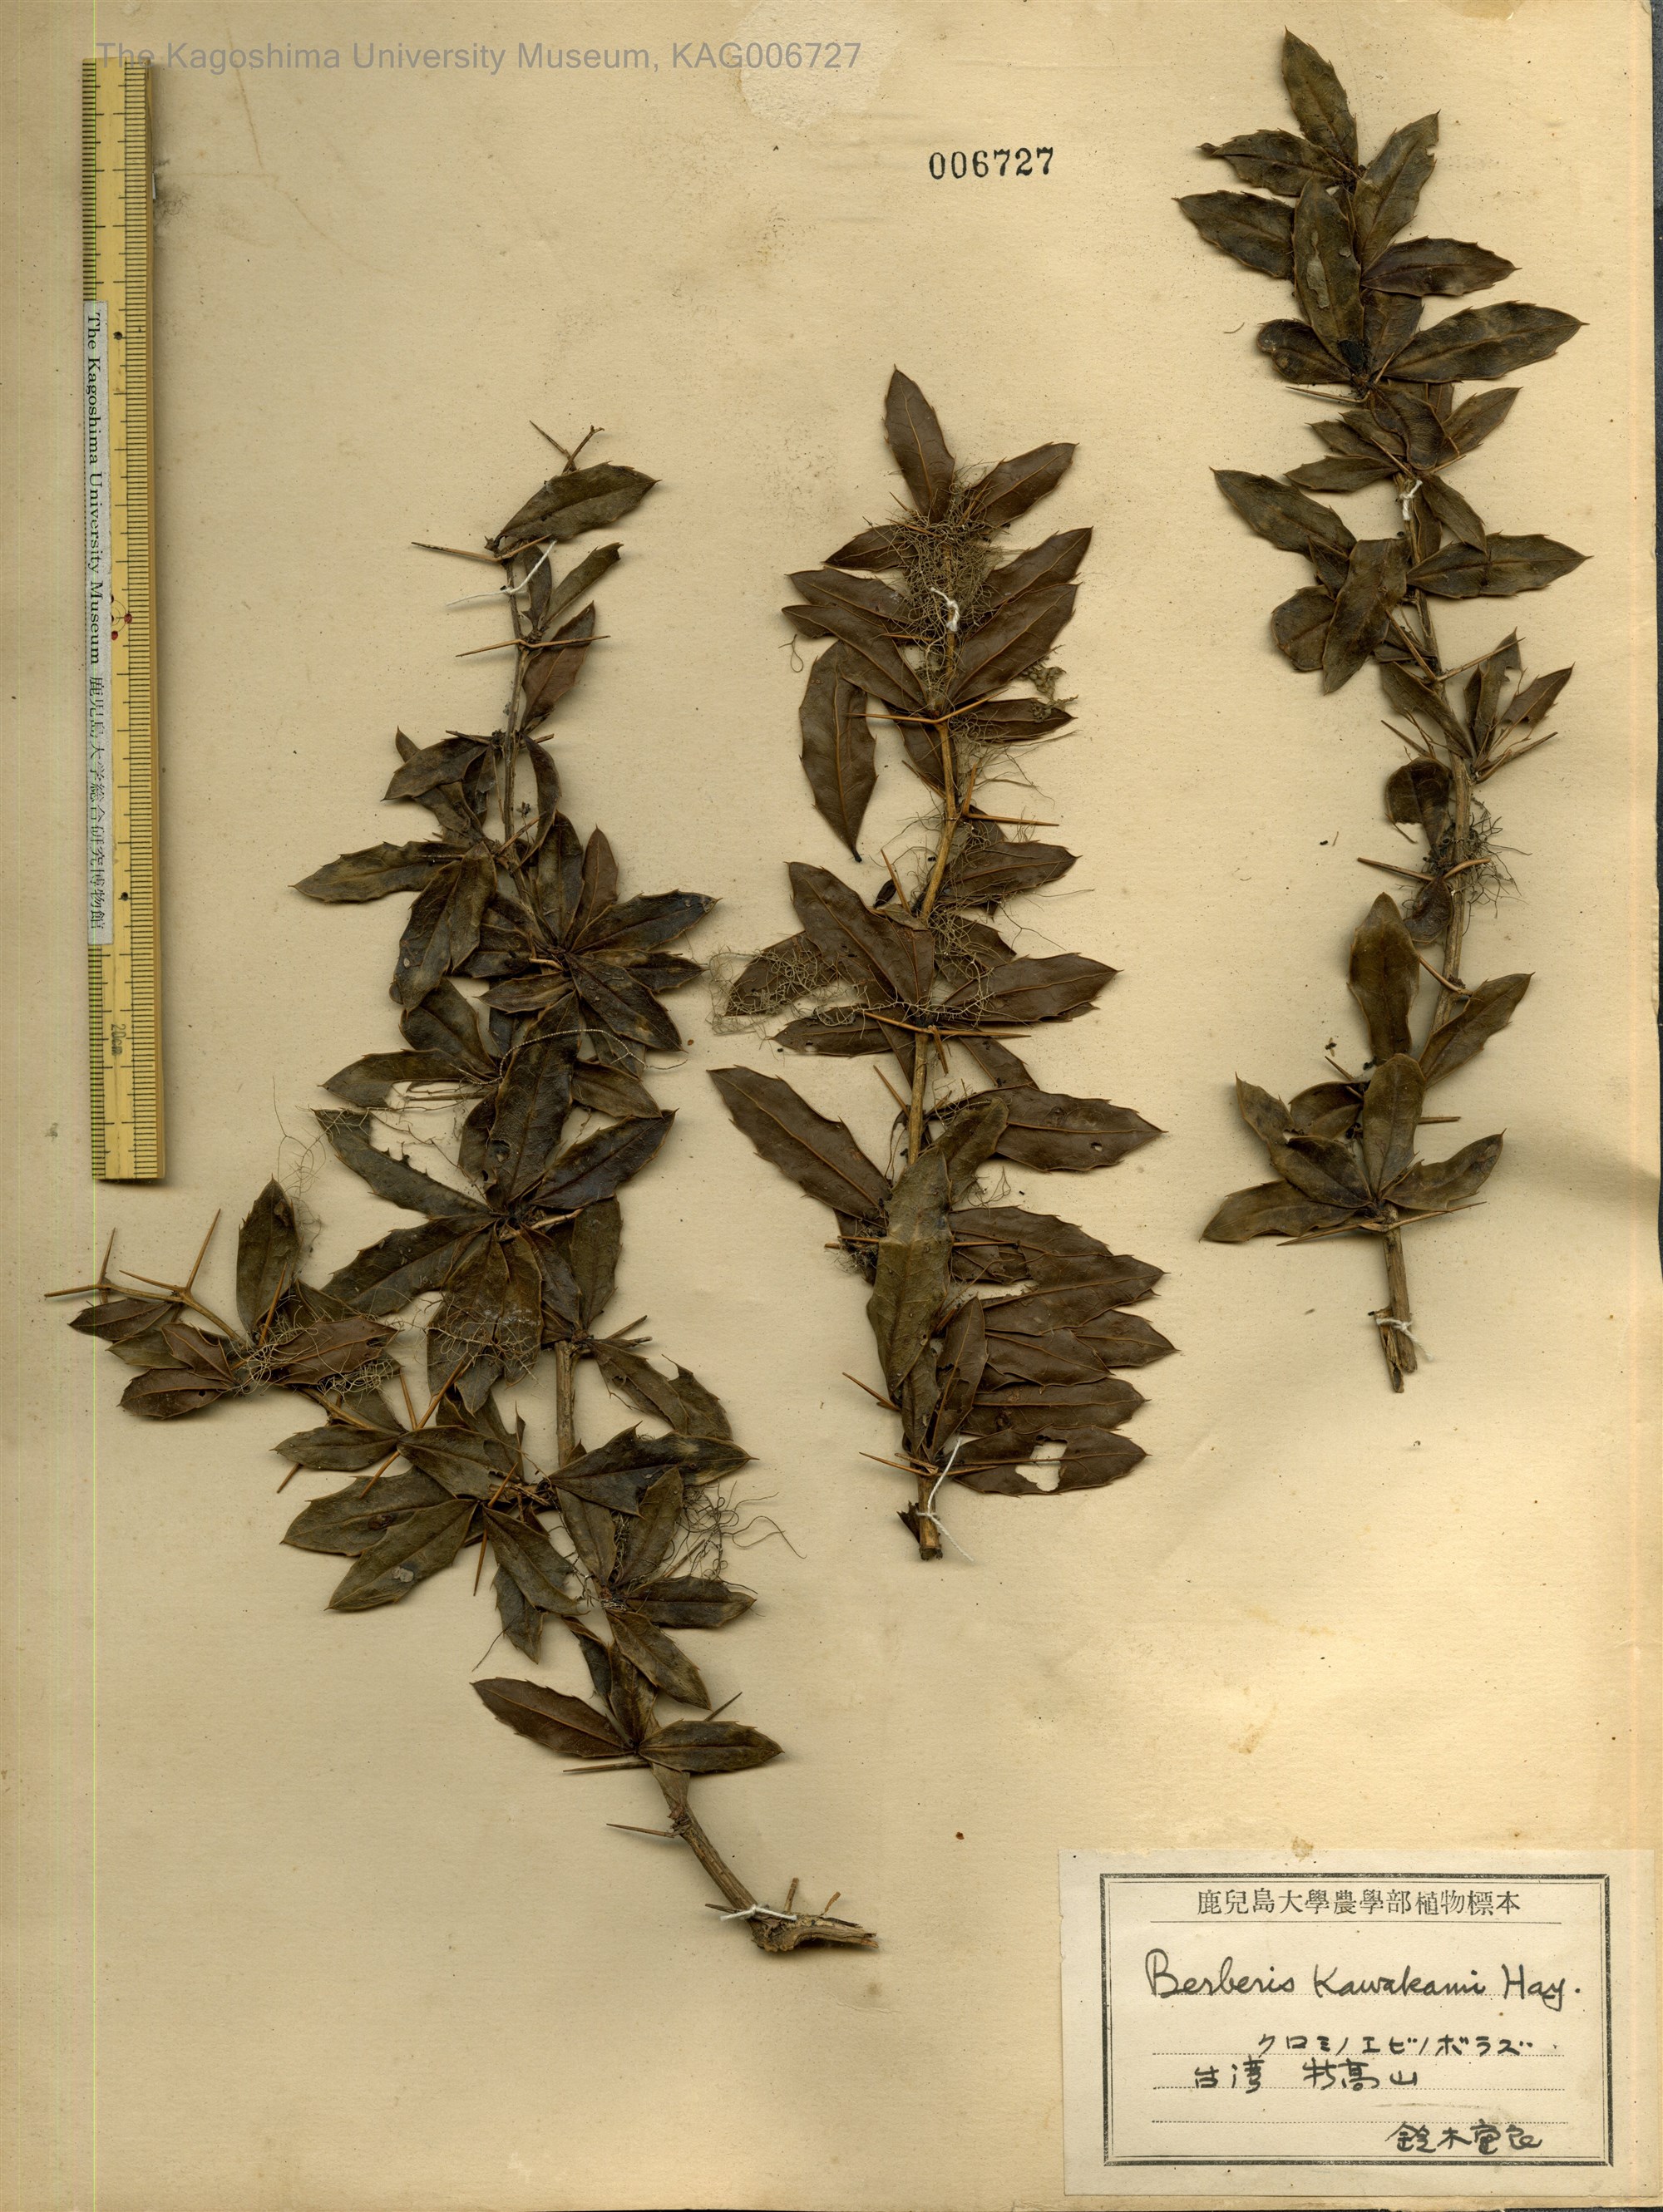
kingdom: Plantae
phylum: Tracheophyta
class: Magnoliopsida
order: Ranunculales
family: Berberidaceae
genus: Berberis
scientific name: Berberis kawakamii
